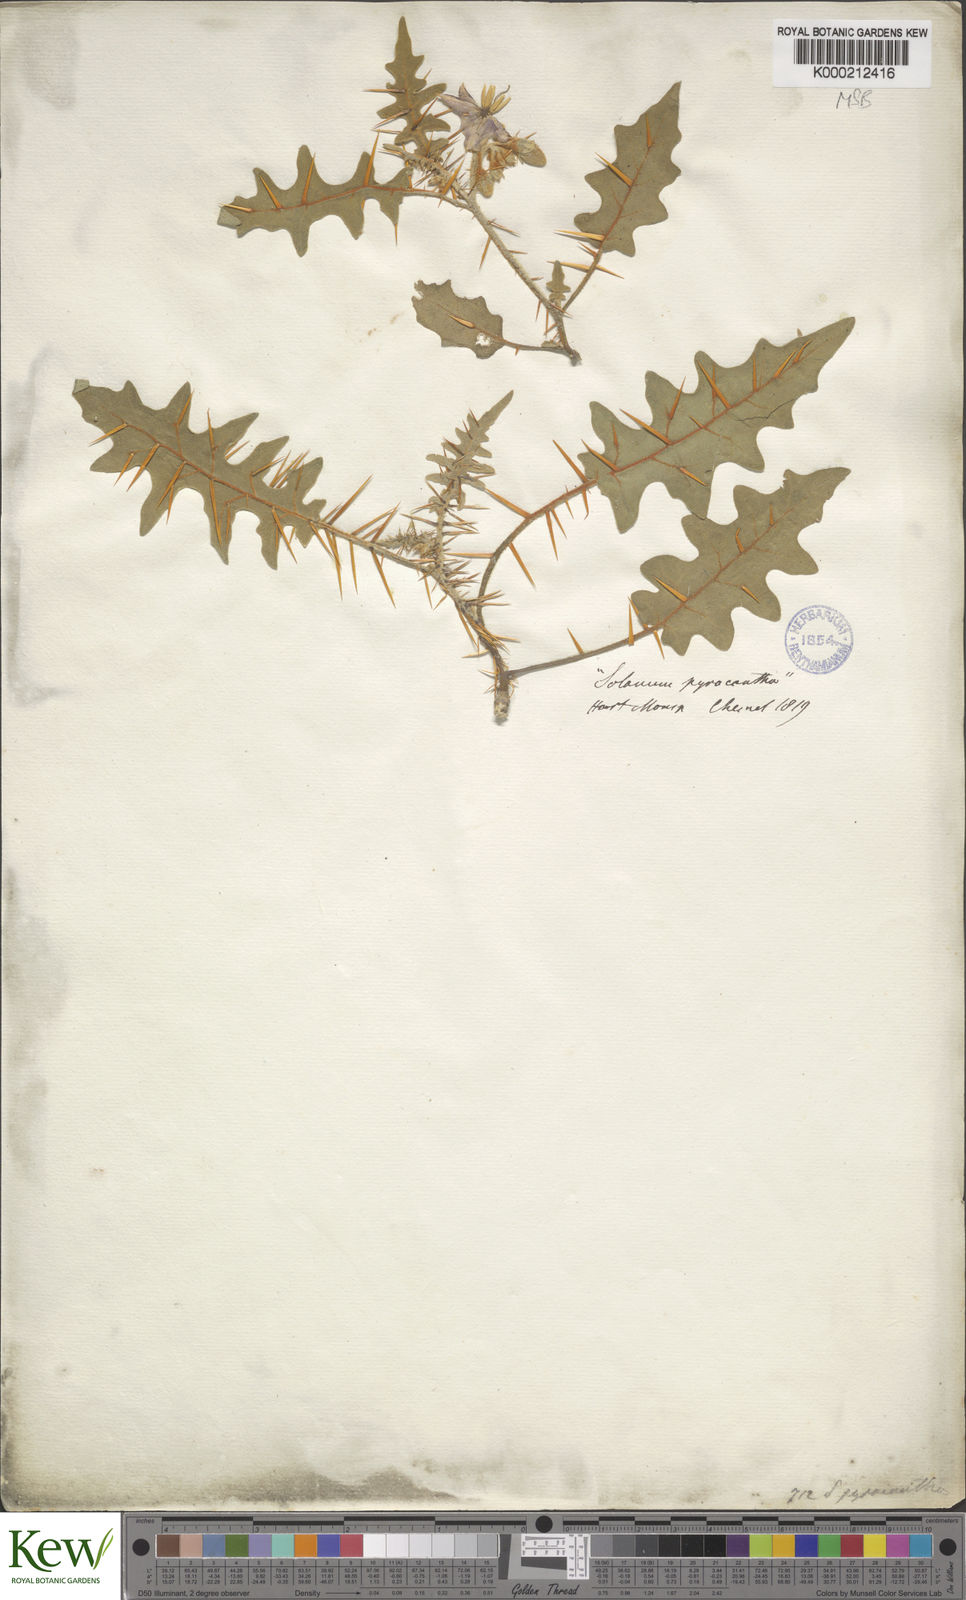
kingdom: Plantae
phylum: Tracheophyta
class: Magnoliopsida
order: Solanales
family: Solanaceae
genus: Solanum
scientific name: Solanum pyracanthos
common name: Porcupine-tomato
